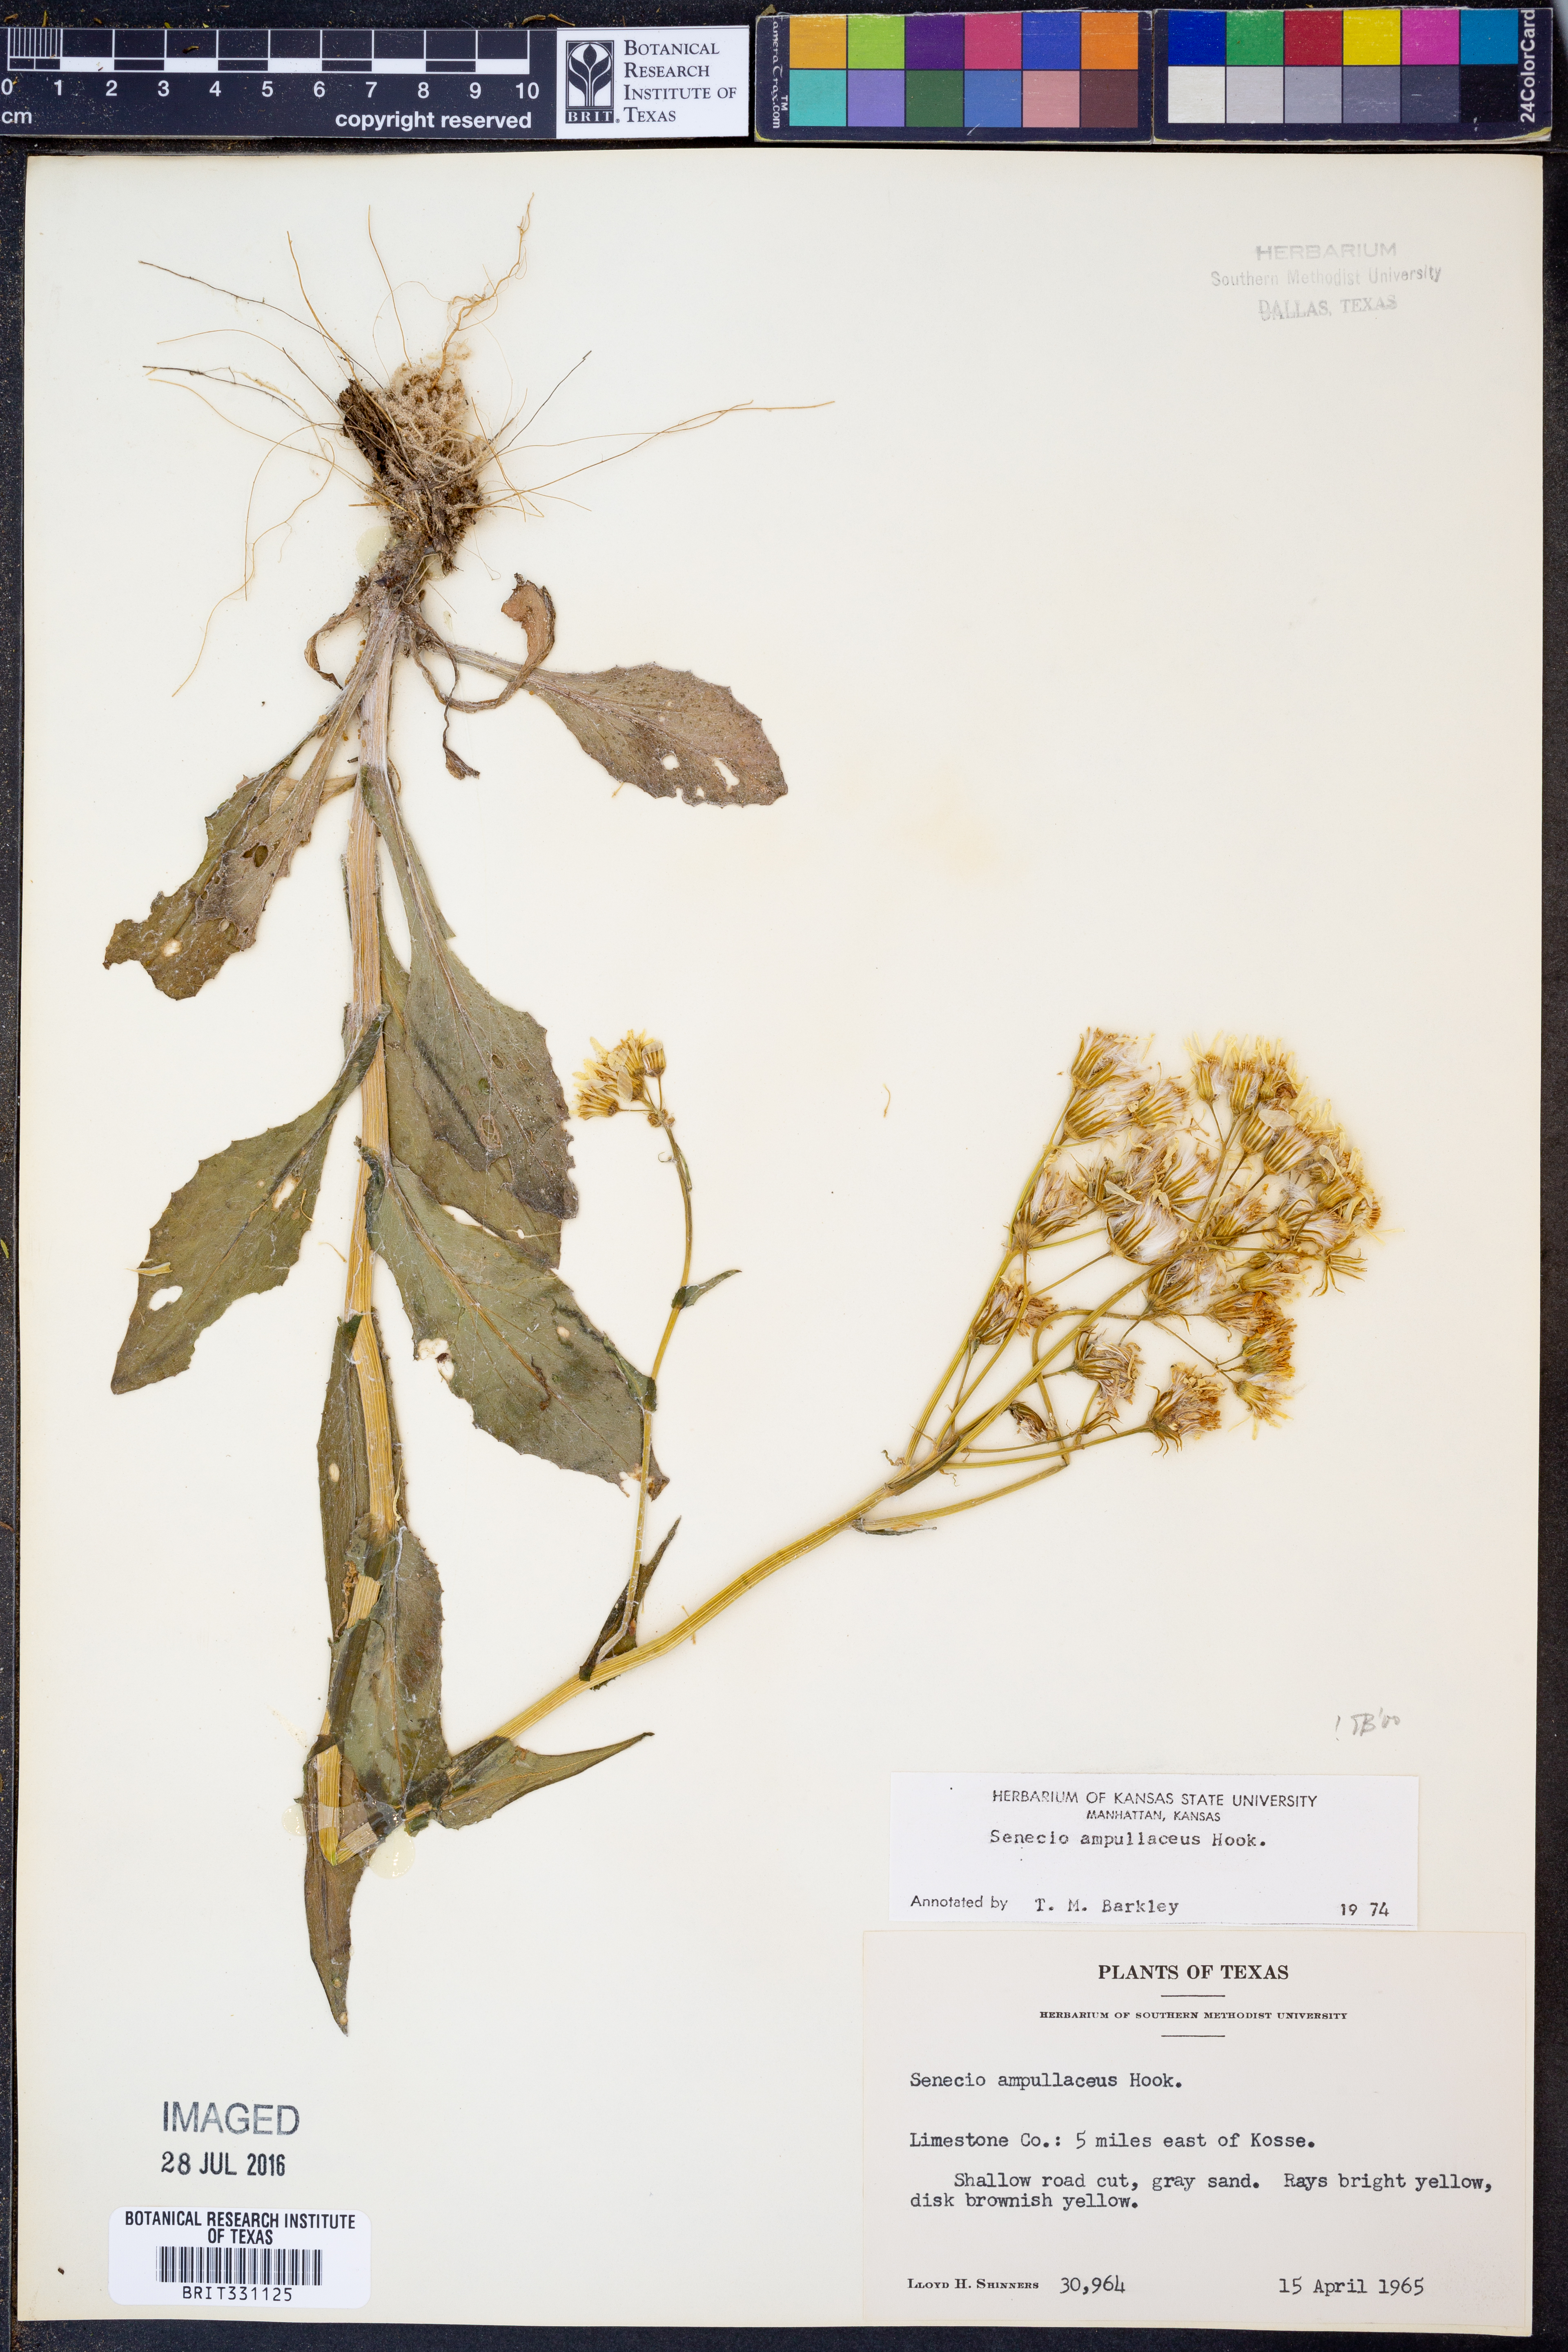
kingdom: Plantae
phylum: Tracheophyta
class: Magnoliopsida
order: Asterales
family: Asteraceae
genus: Senecio
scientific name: Senecio ampullaceus
